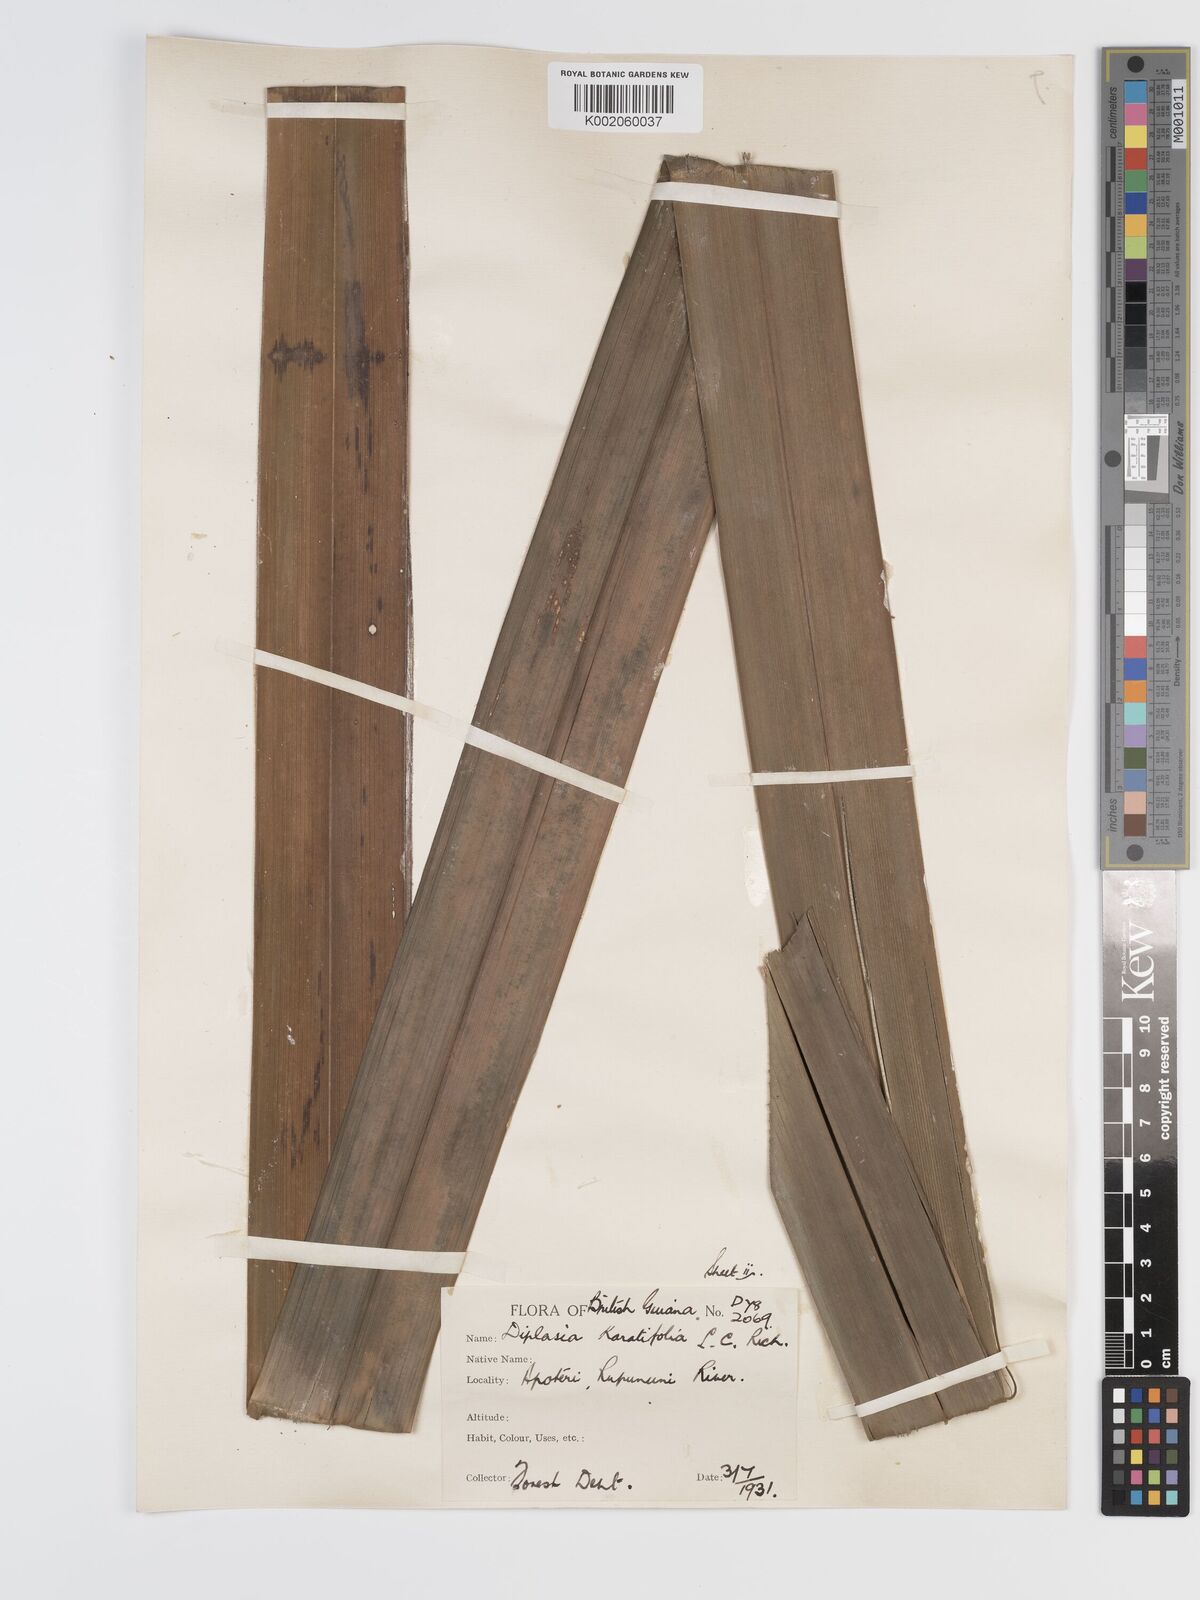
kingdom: Plantae
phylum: Tracheophyta
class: Liliopsida
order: Poales
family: Cyperaceae
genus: Diplasia
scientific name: Diplasia karatifolia
